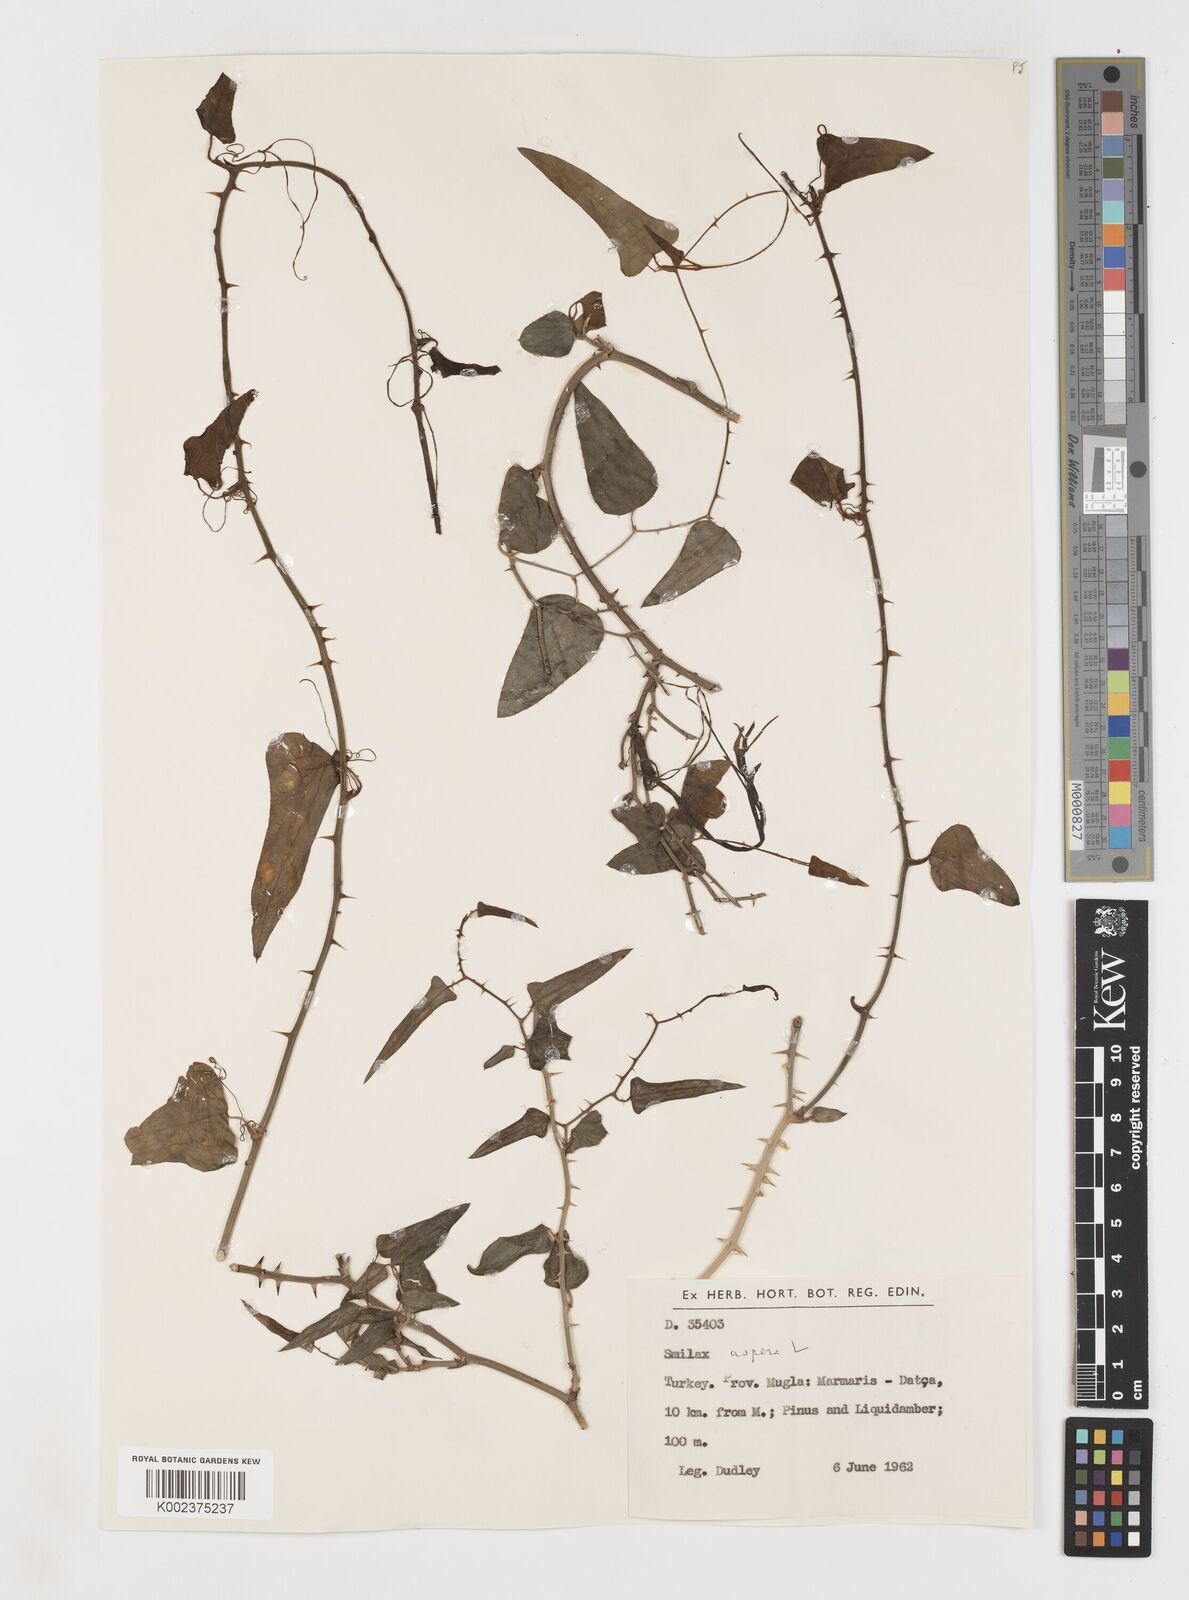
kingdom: Plantae
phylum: Tracheophyta
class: Liliopsida
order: Liliales
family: Smilacaceae
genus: Smilax
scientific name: Smilax aspera
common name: Common smilax
